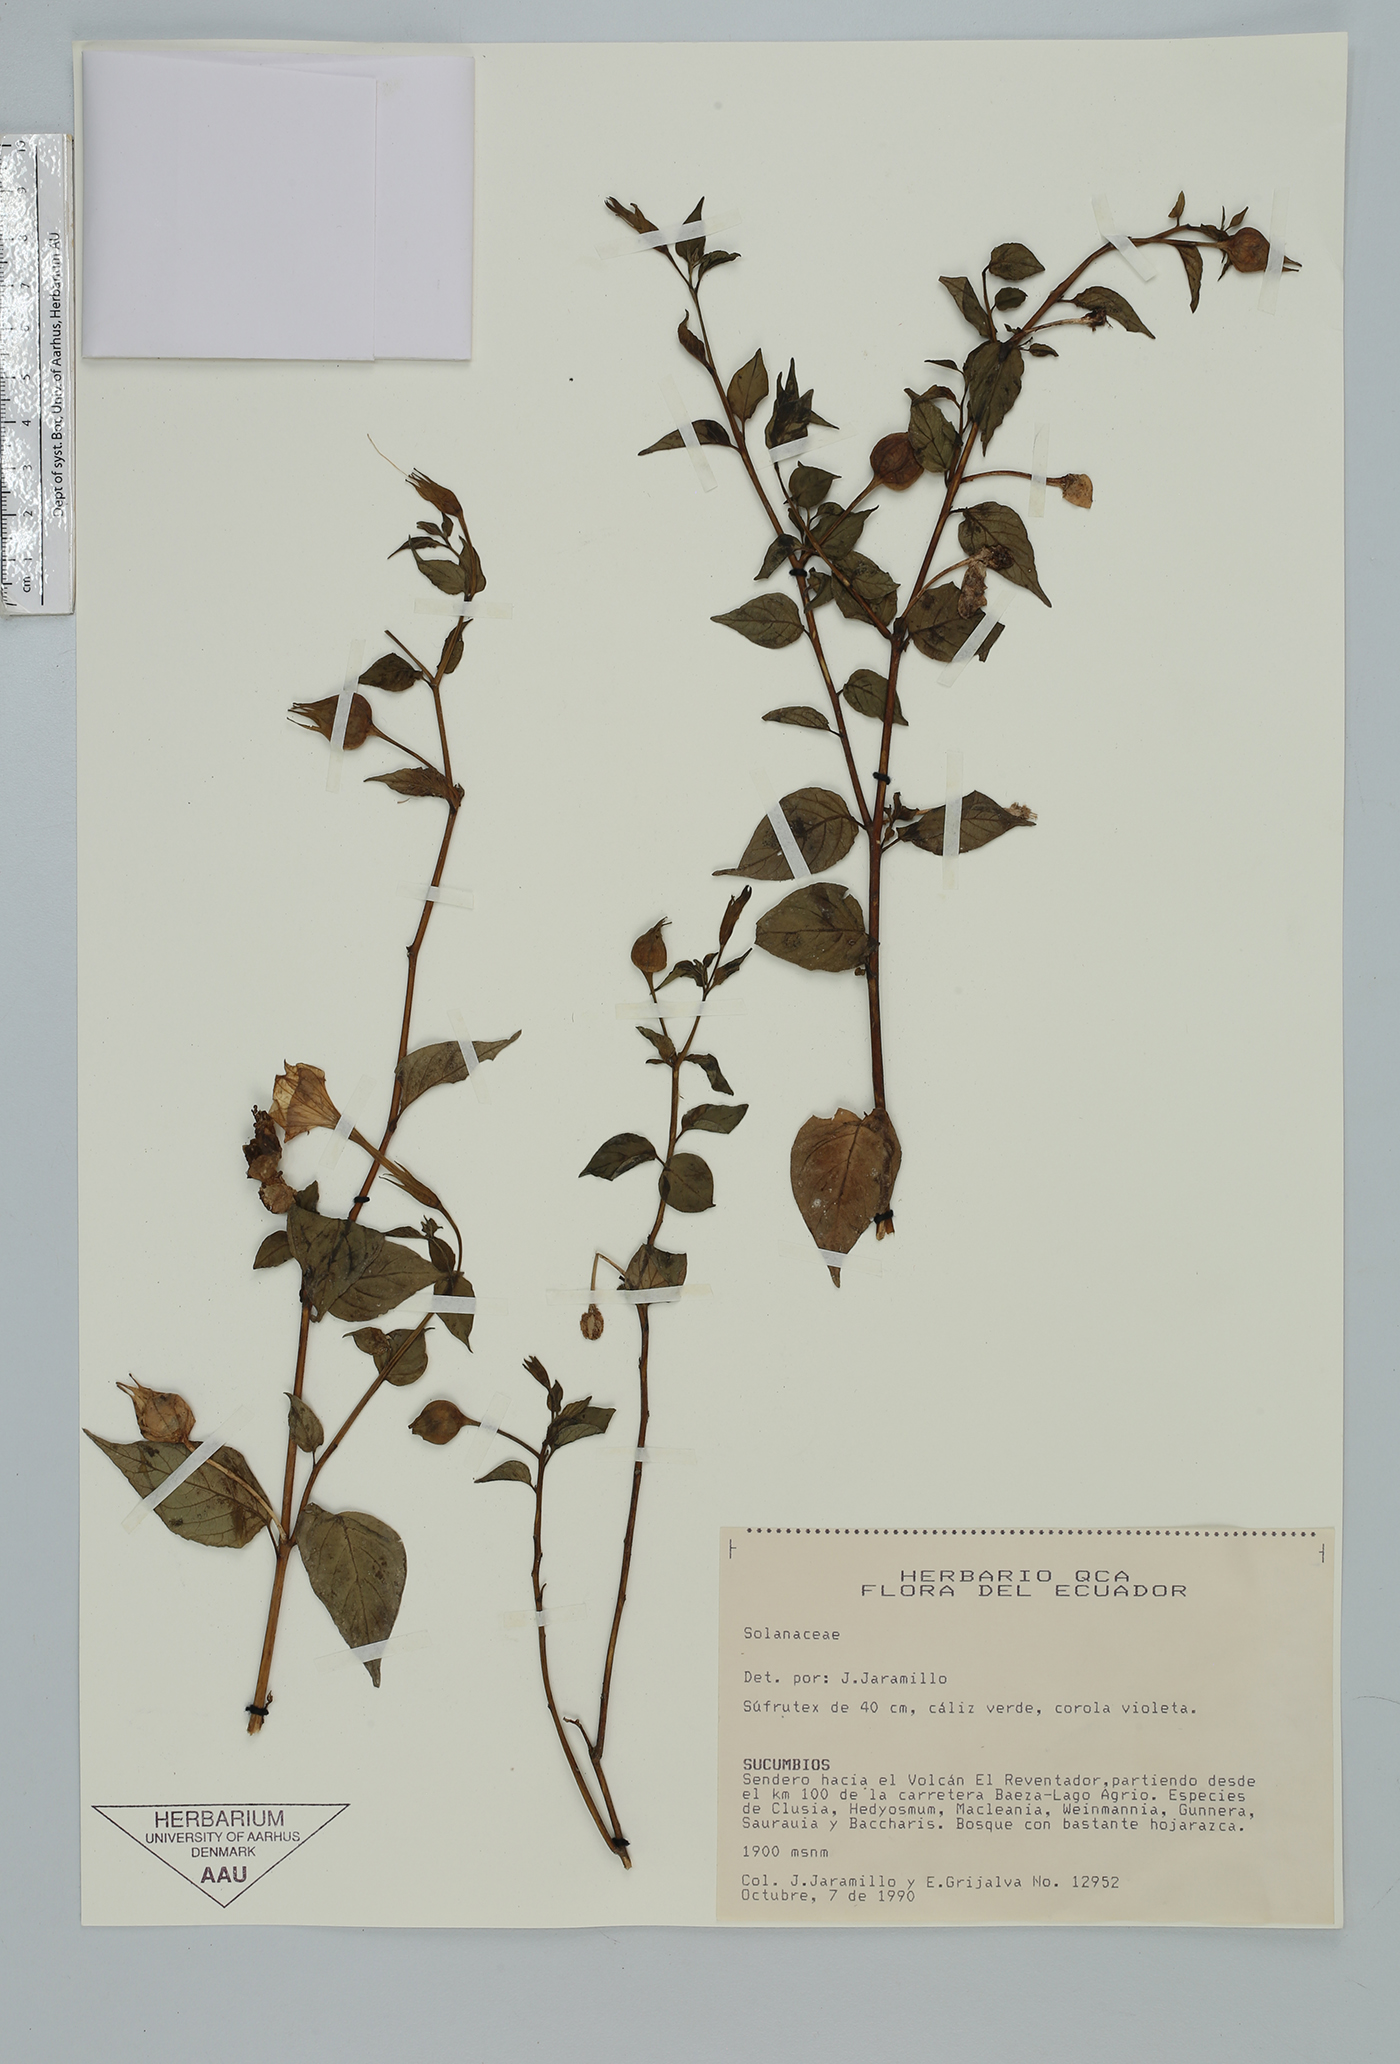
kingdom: Plantae
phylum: Tracheophyta
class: Magnoliopsida
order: Solanales
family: Solanaceae
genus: Browallia
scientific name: Browallia
